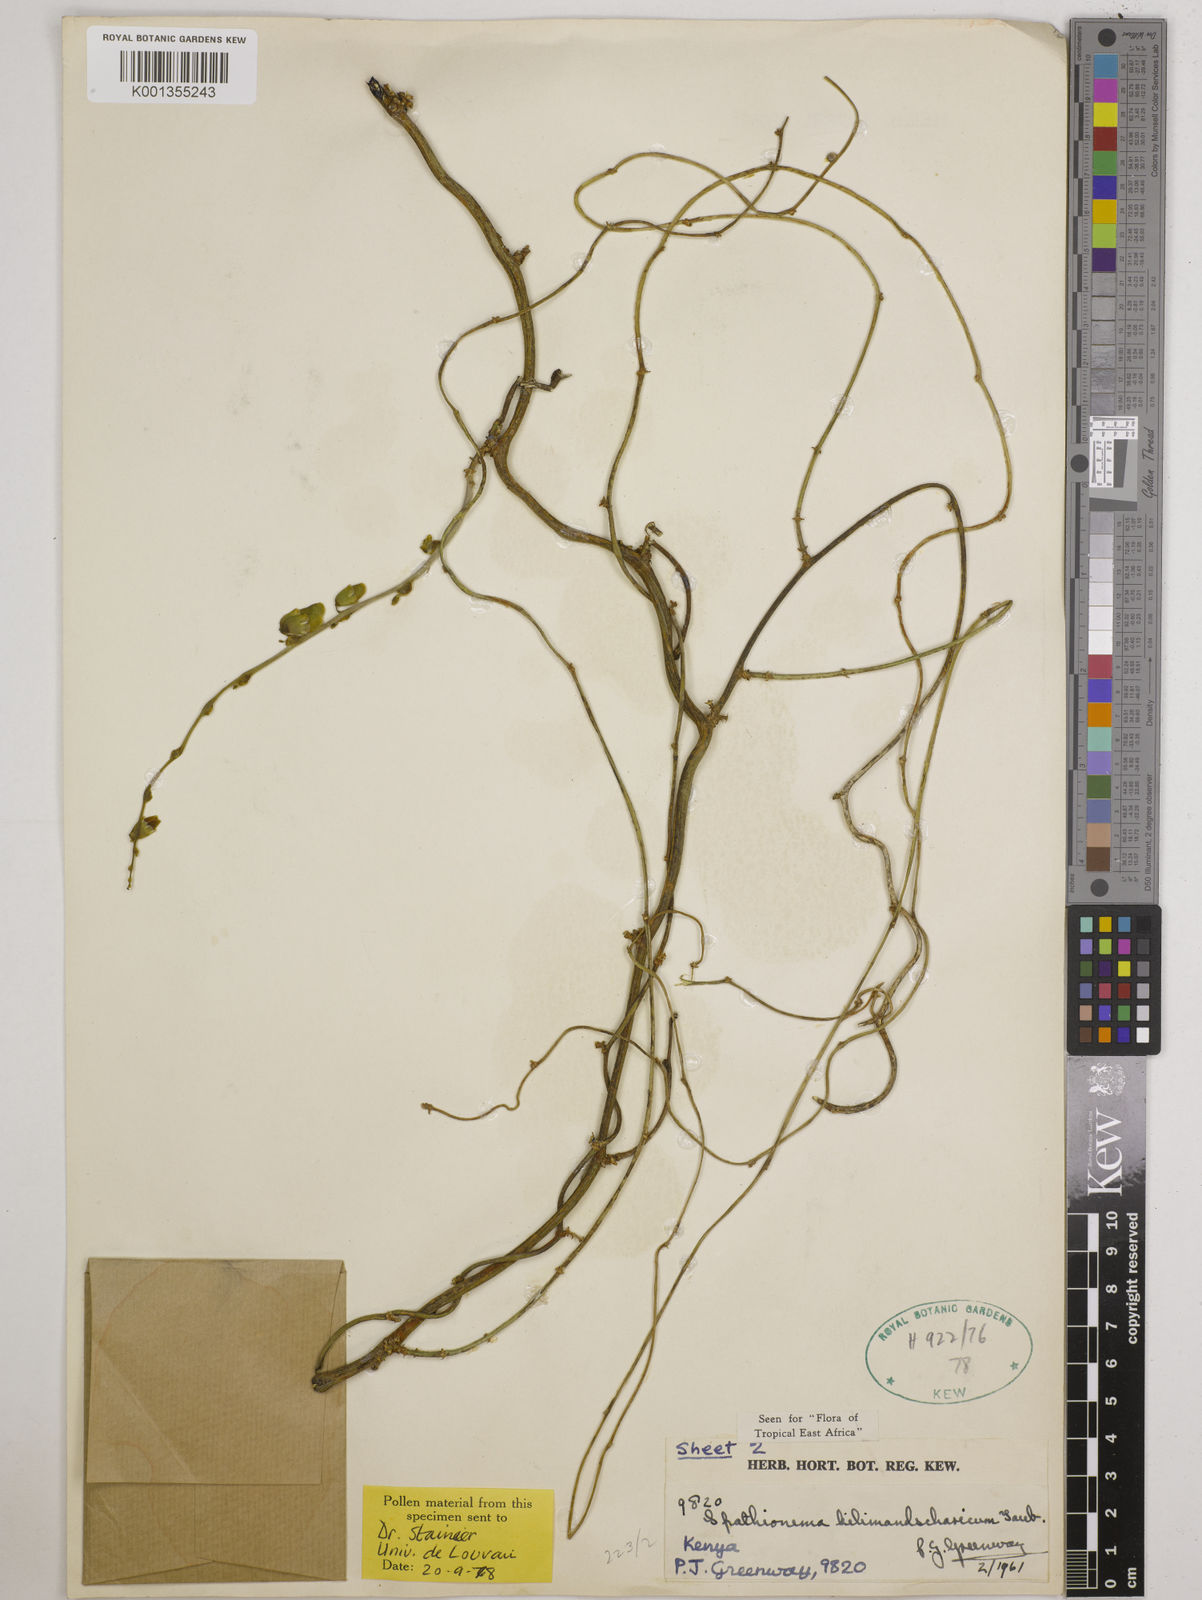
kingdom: Plantae
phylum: Tracheophyta
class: Magnoliopsida
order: Fabales
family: Fabaceae
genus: Spathionema
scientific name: Spathionema kilimandscharicum
